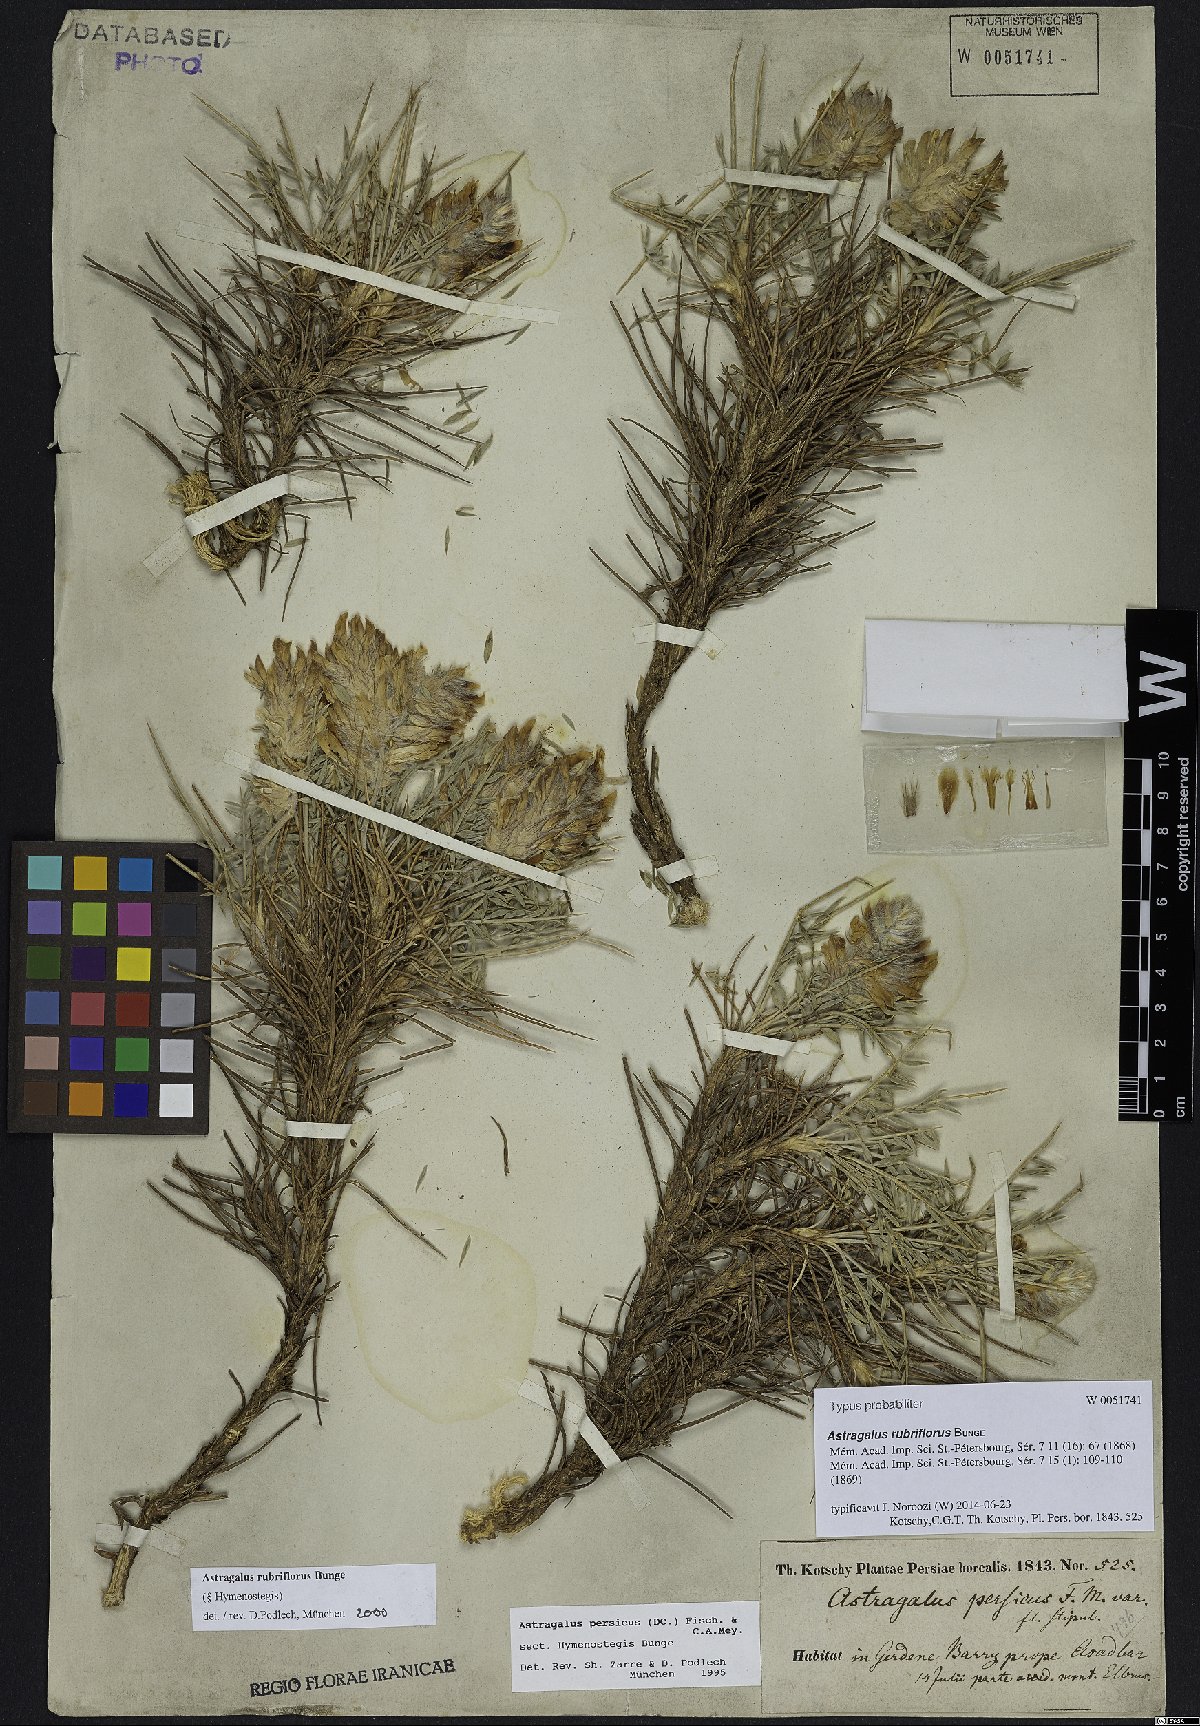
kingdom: Plantae
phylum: Tracheophyta
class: Magnoliopsida
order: Fabales
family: Fabaceae
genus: Astragalus
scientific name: Astragalus rubriflorus
